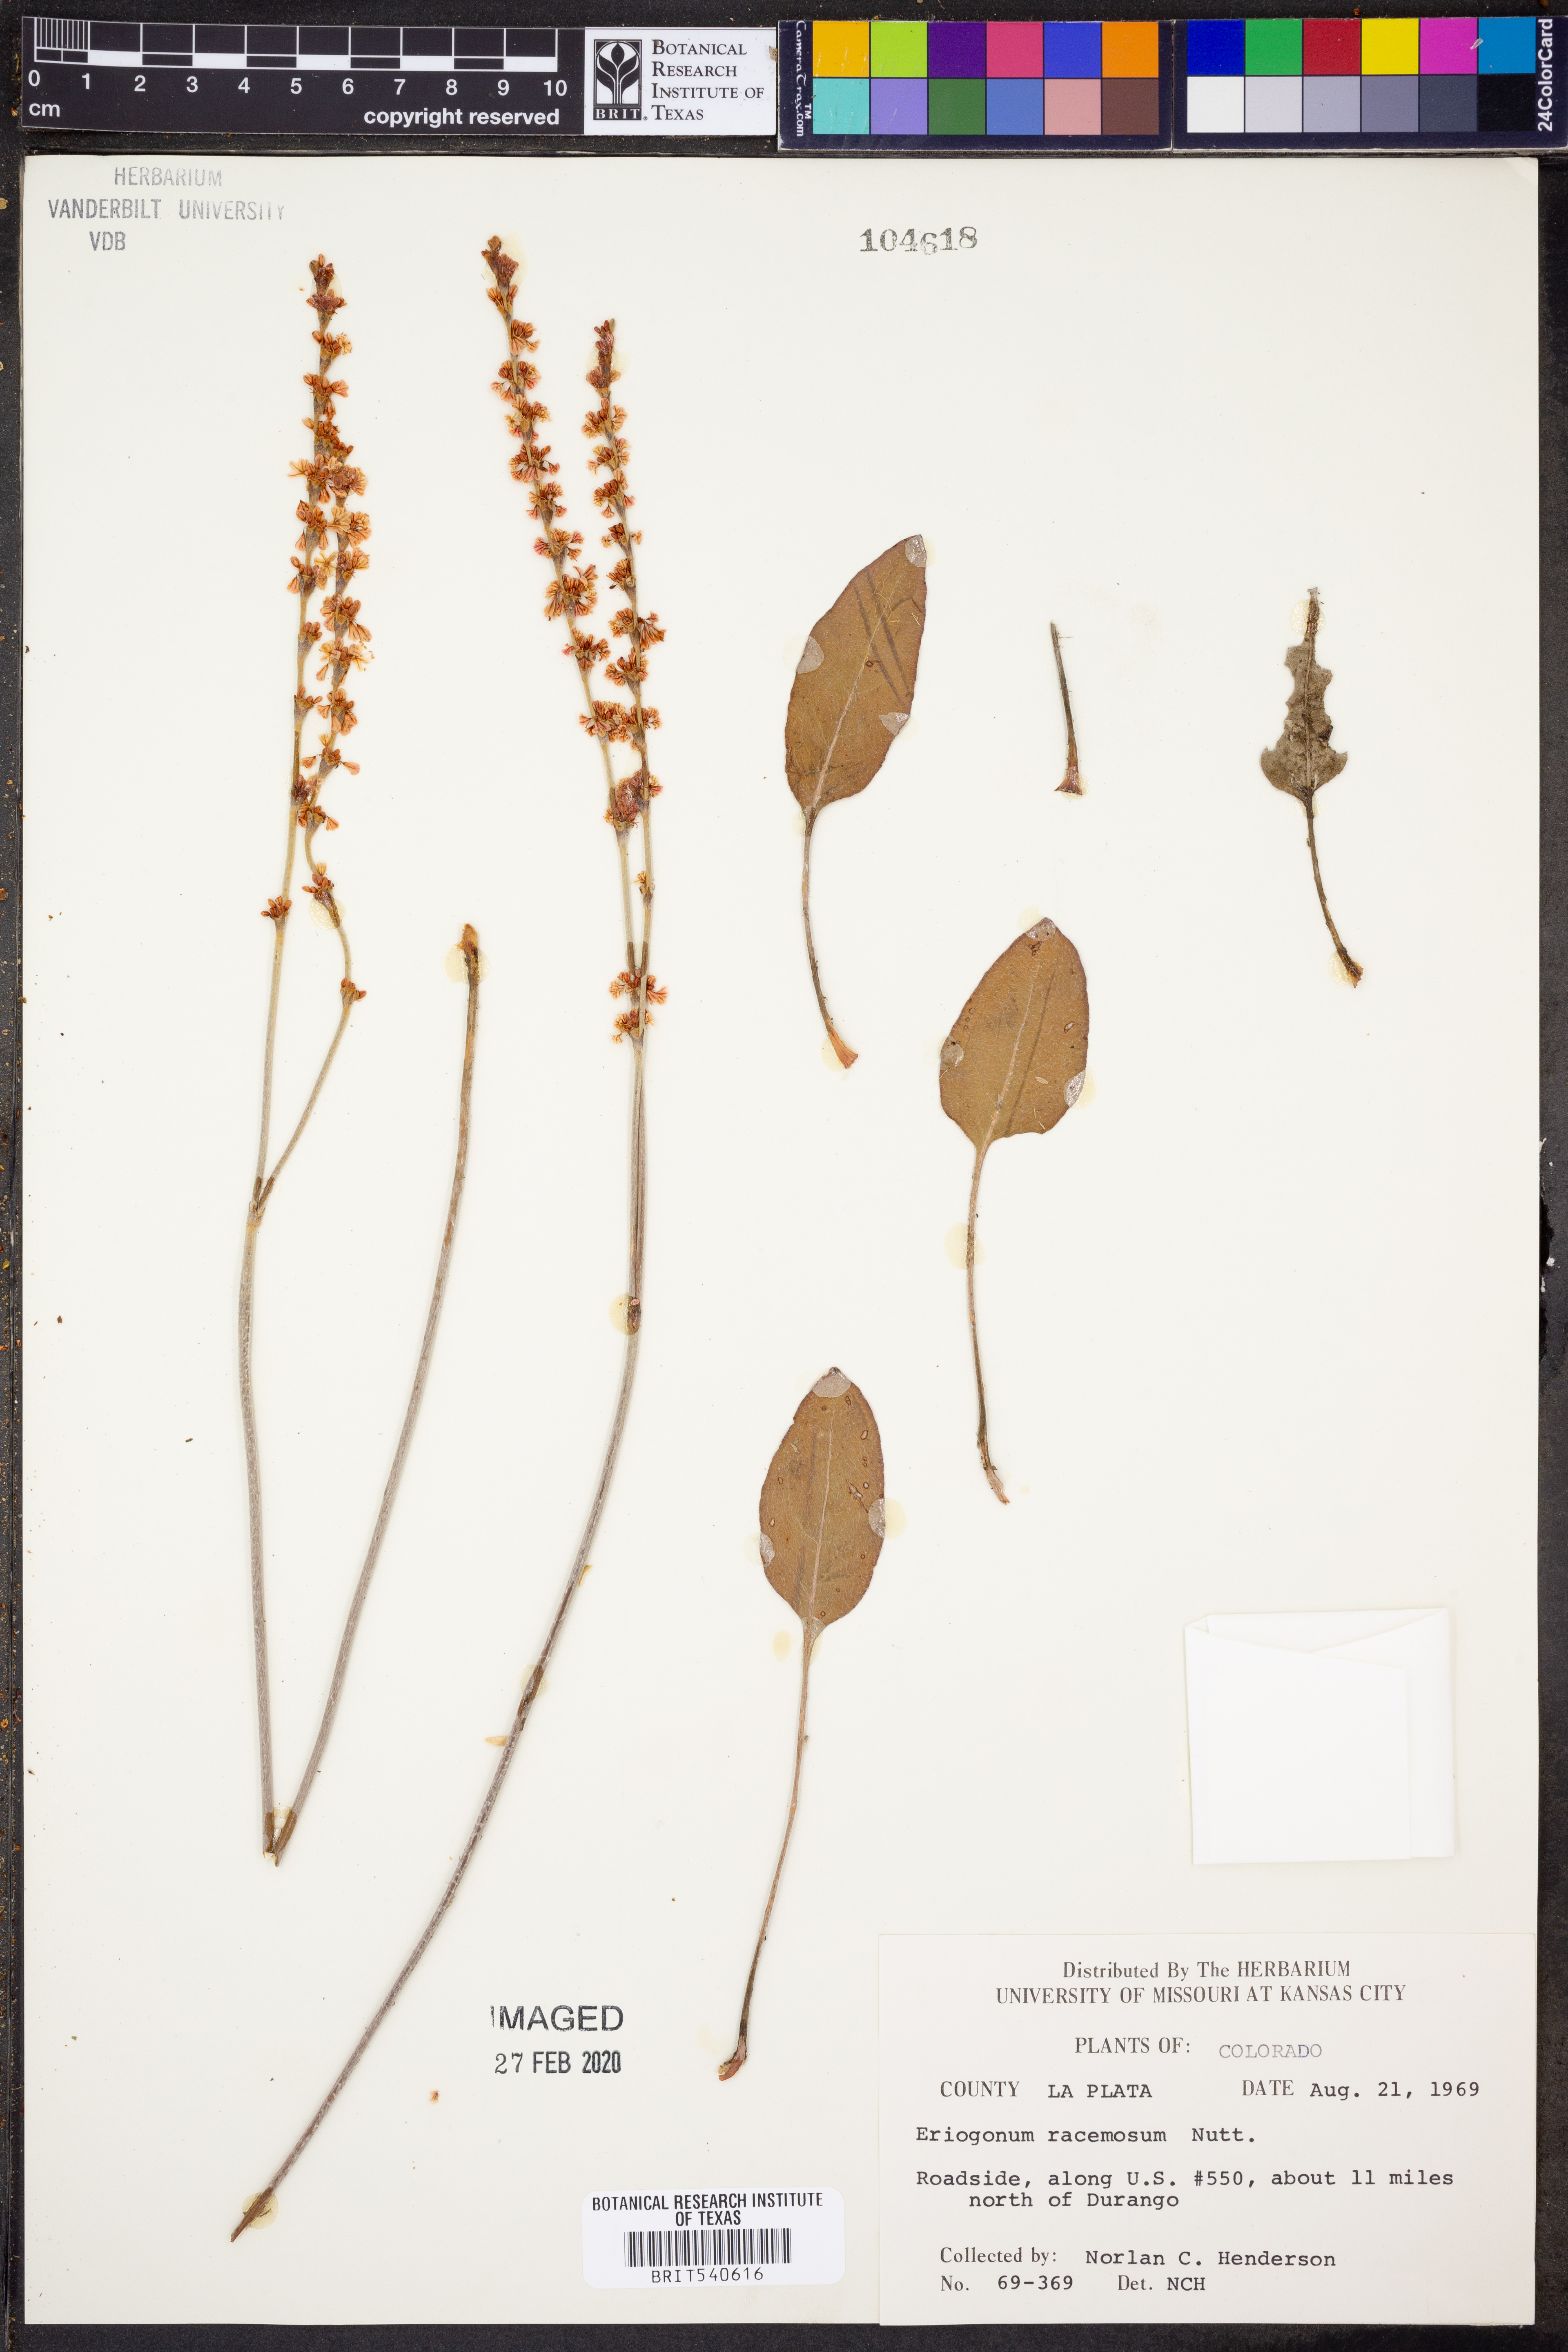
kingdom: Plantae
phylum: Tracheophyta
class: Magnoliopsida
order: Caryophyllales
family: Polygonaceae
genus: Eriogonum
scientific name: Eriogonum racemosum
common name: Redroot wild buckwheat
